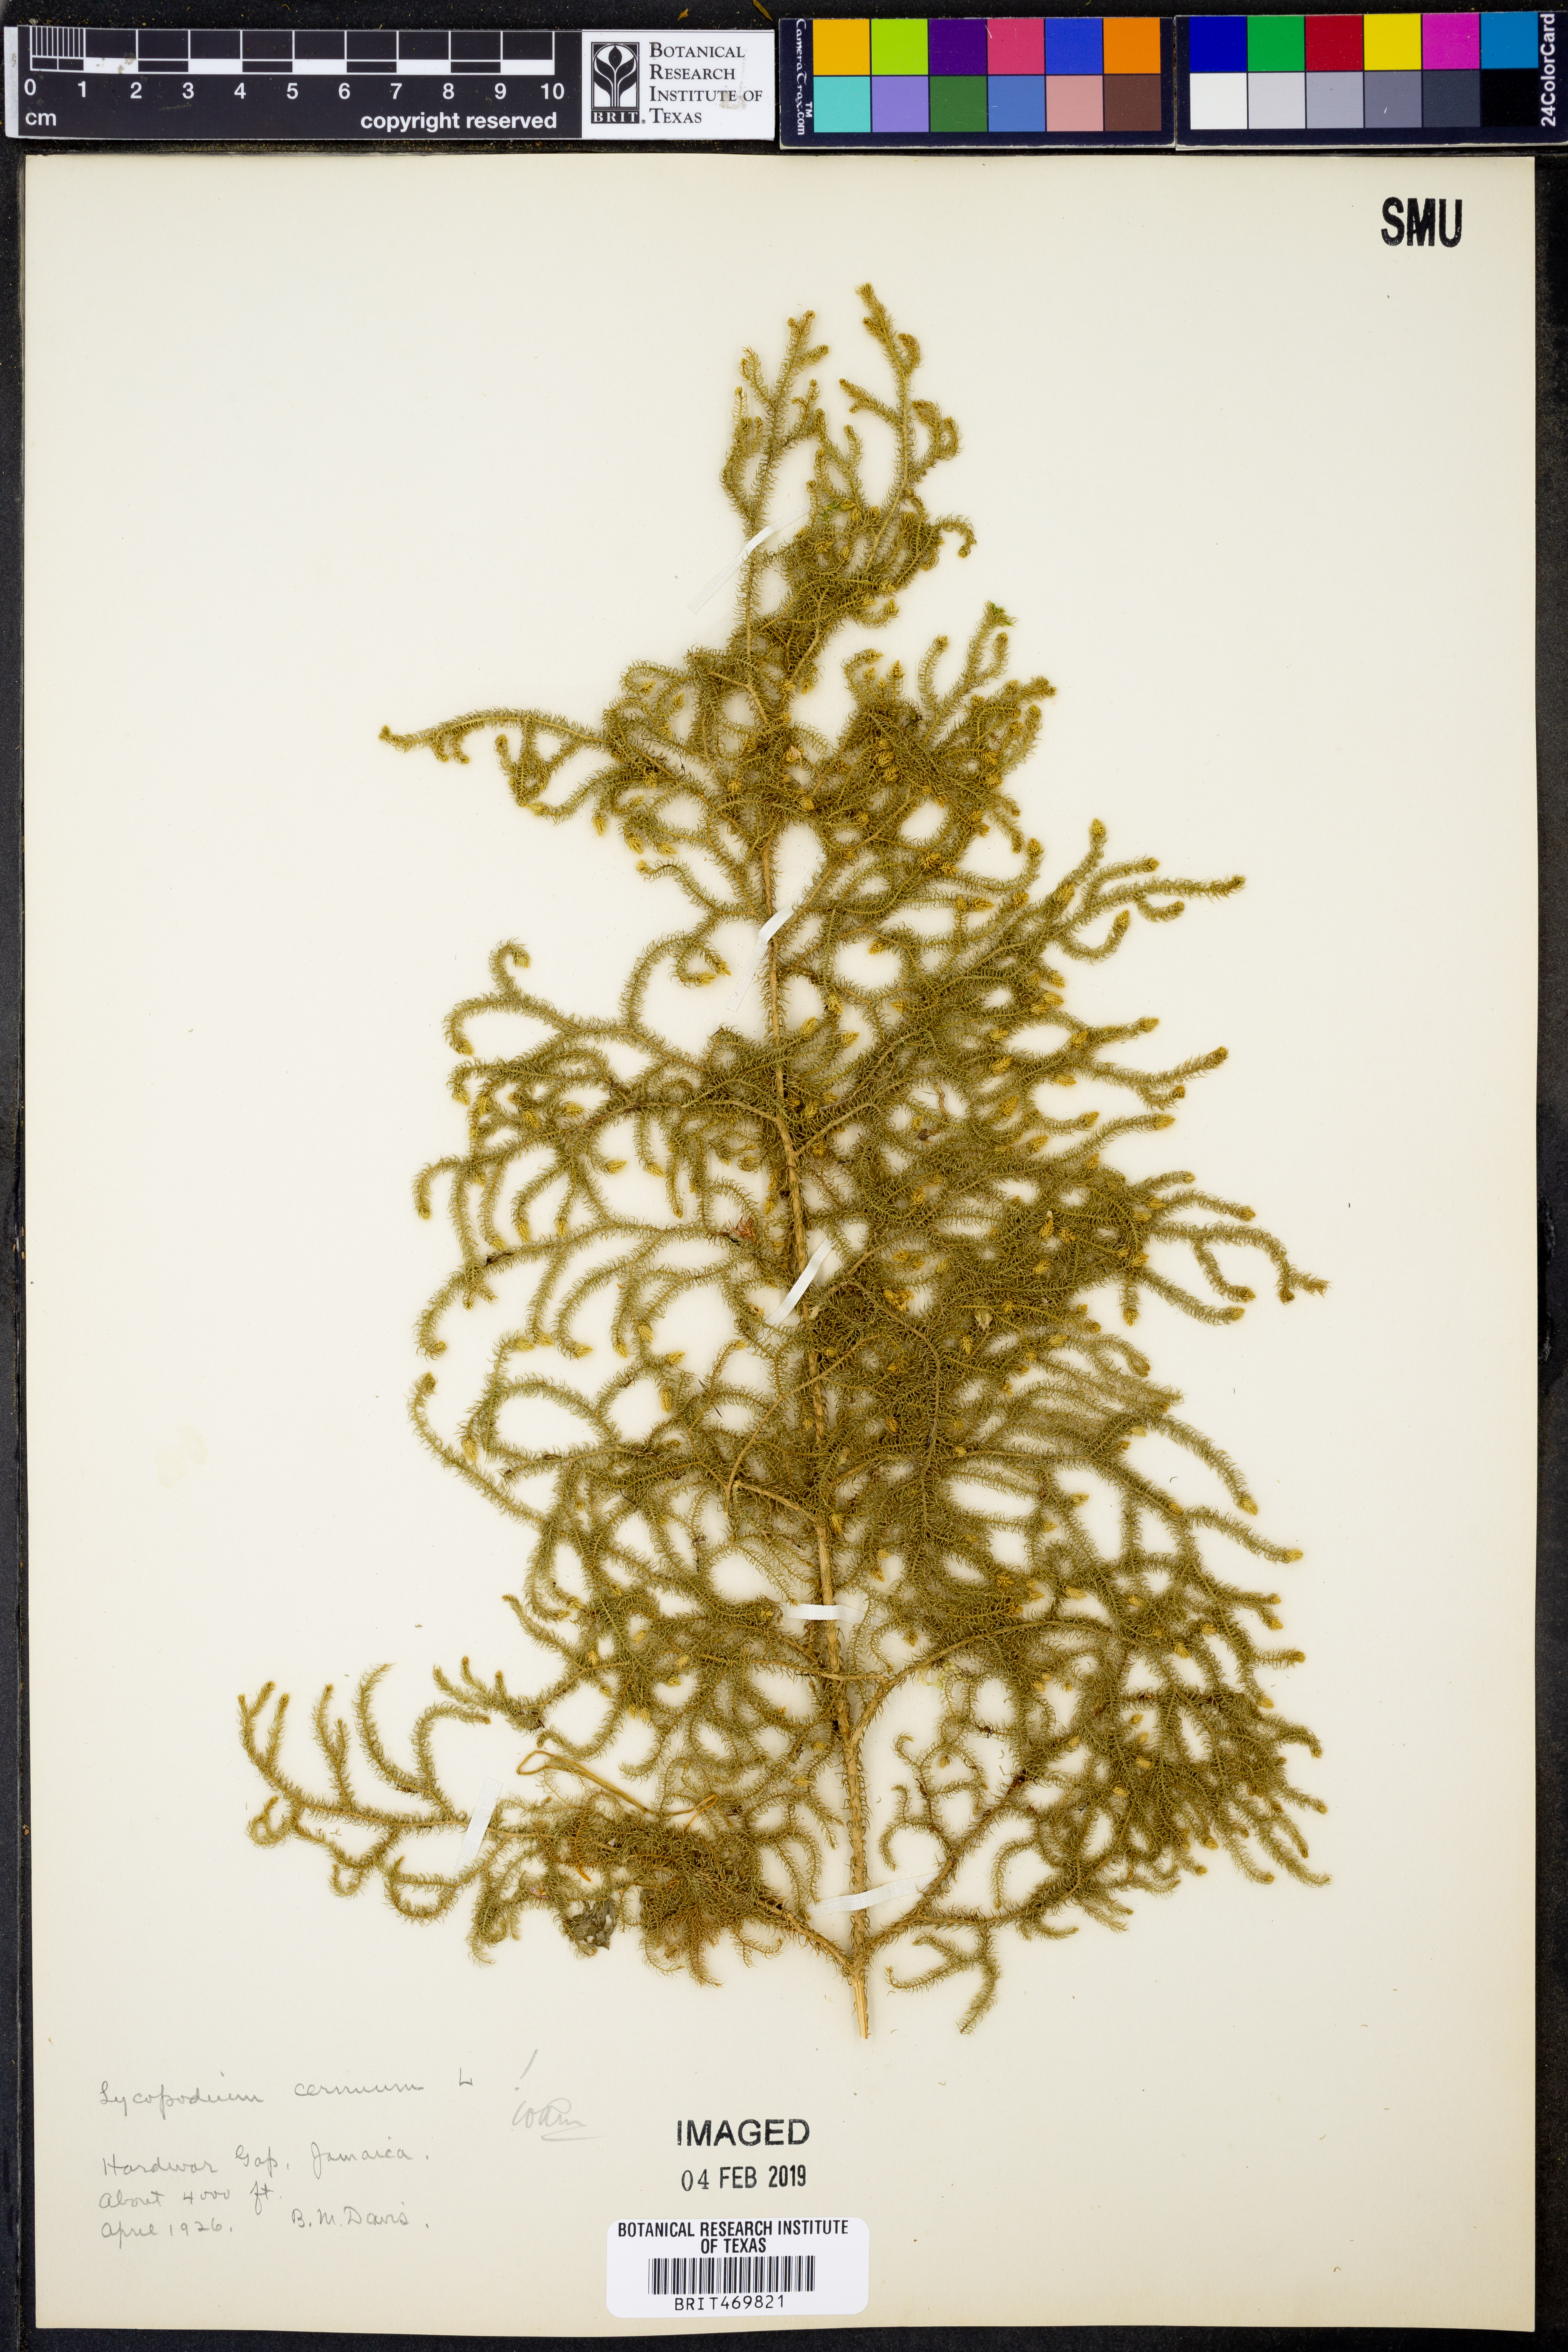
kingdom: Plantae
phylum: Tracheophyta
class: Lycopodiopsida
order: Lycopodiales
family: Lycopodiaceae
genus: Palhinhaea
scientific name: Palhinhaea cernua
